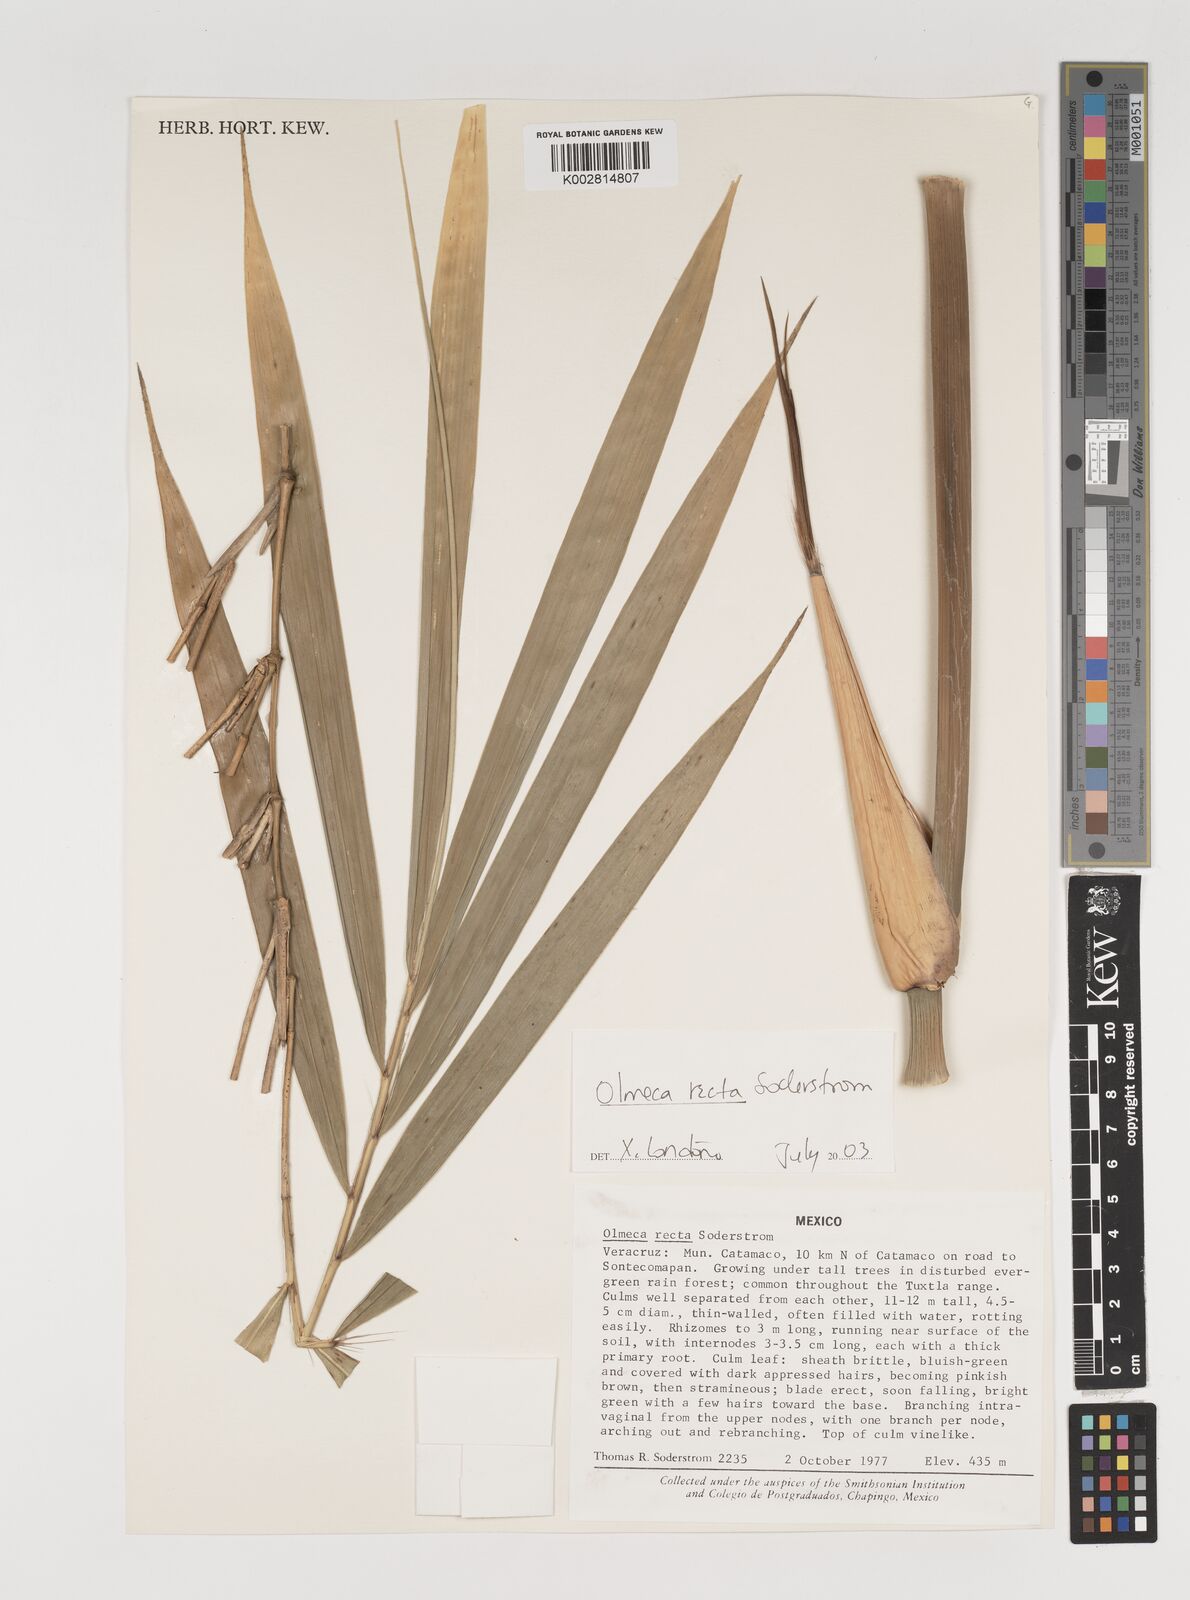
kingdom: Plantae
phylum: Tracheophyta
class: Liliopsida
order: Poales
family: Poaceae
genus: Olmeca
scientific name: Olmeca recta
